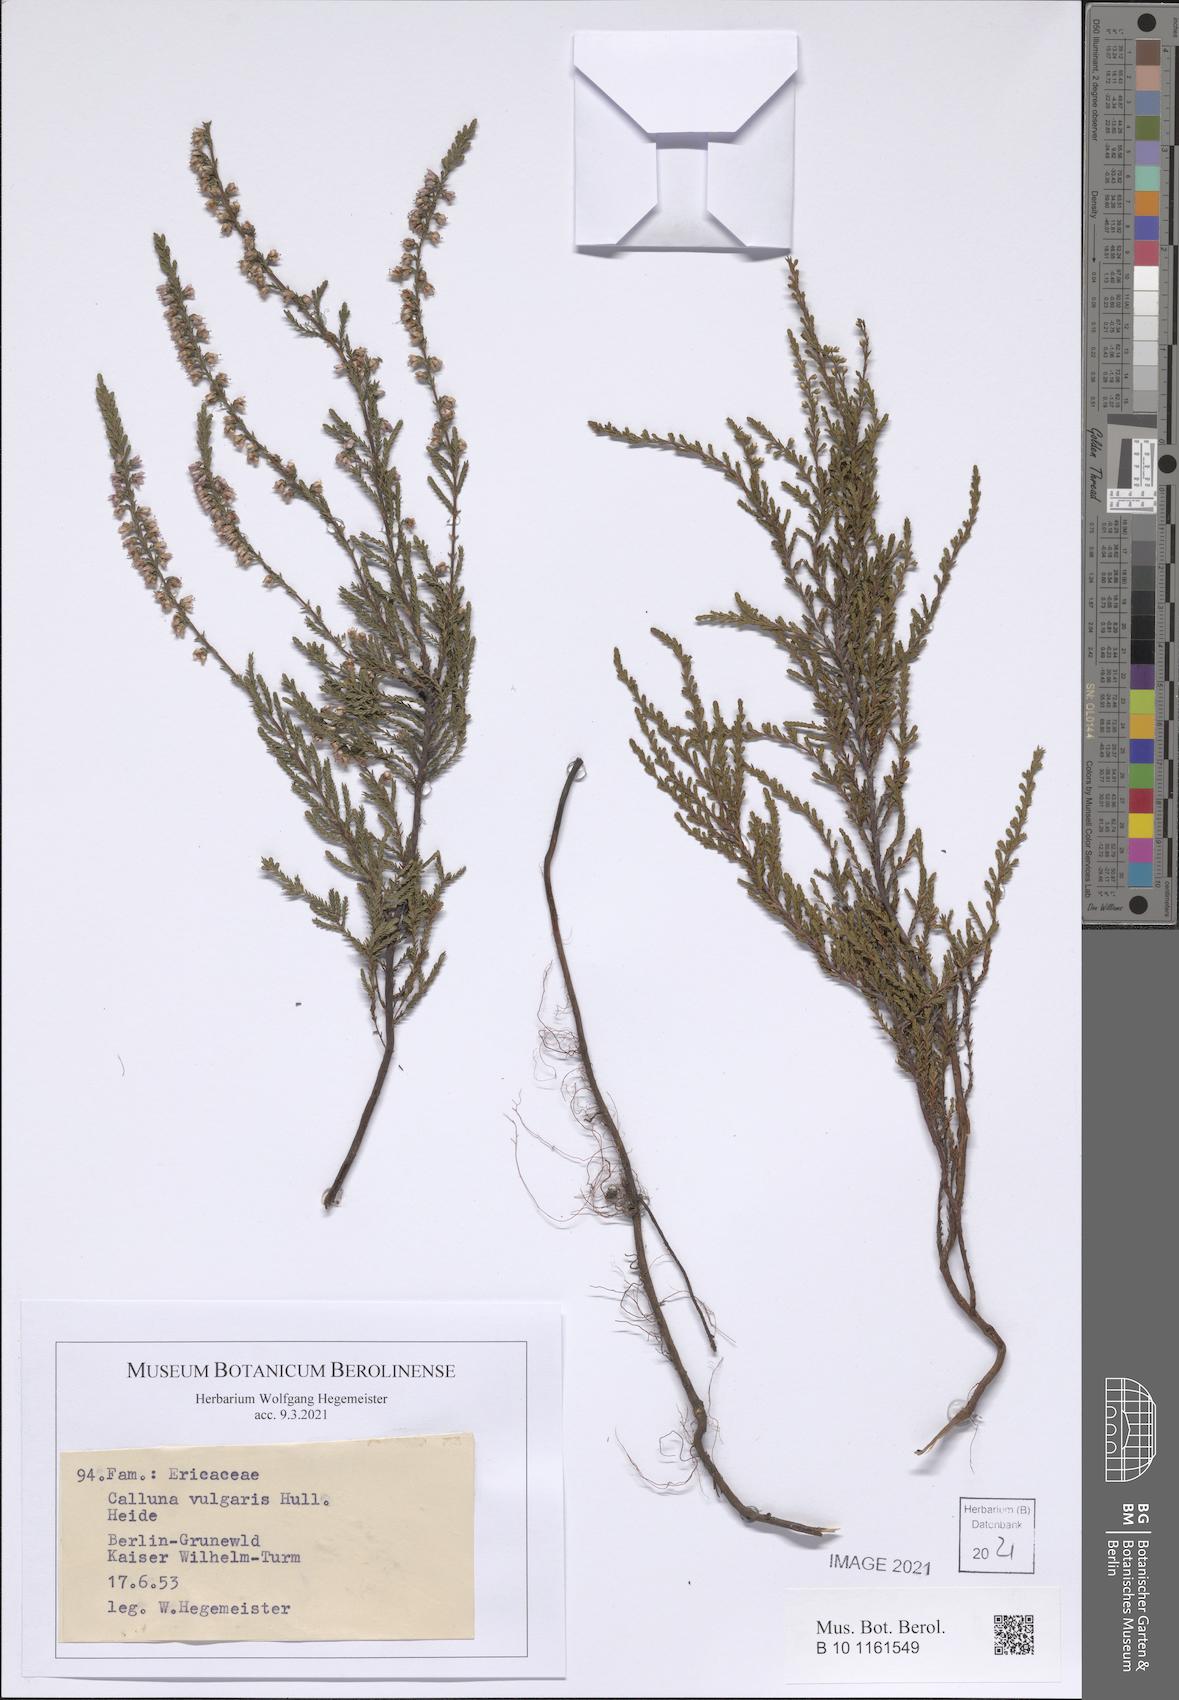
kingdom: Plantae
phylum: Tracheophyta
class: Magnoliopsida
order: Ericales
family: Ericaceae
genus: Calluna
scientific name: Calluna vulgaris
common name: Heather
